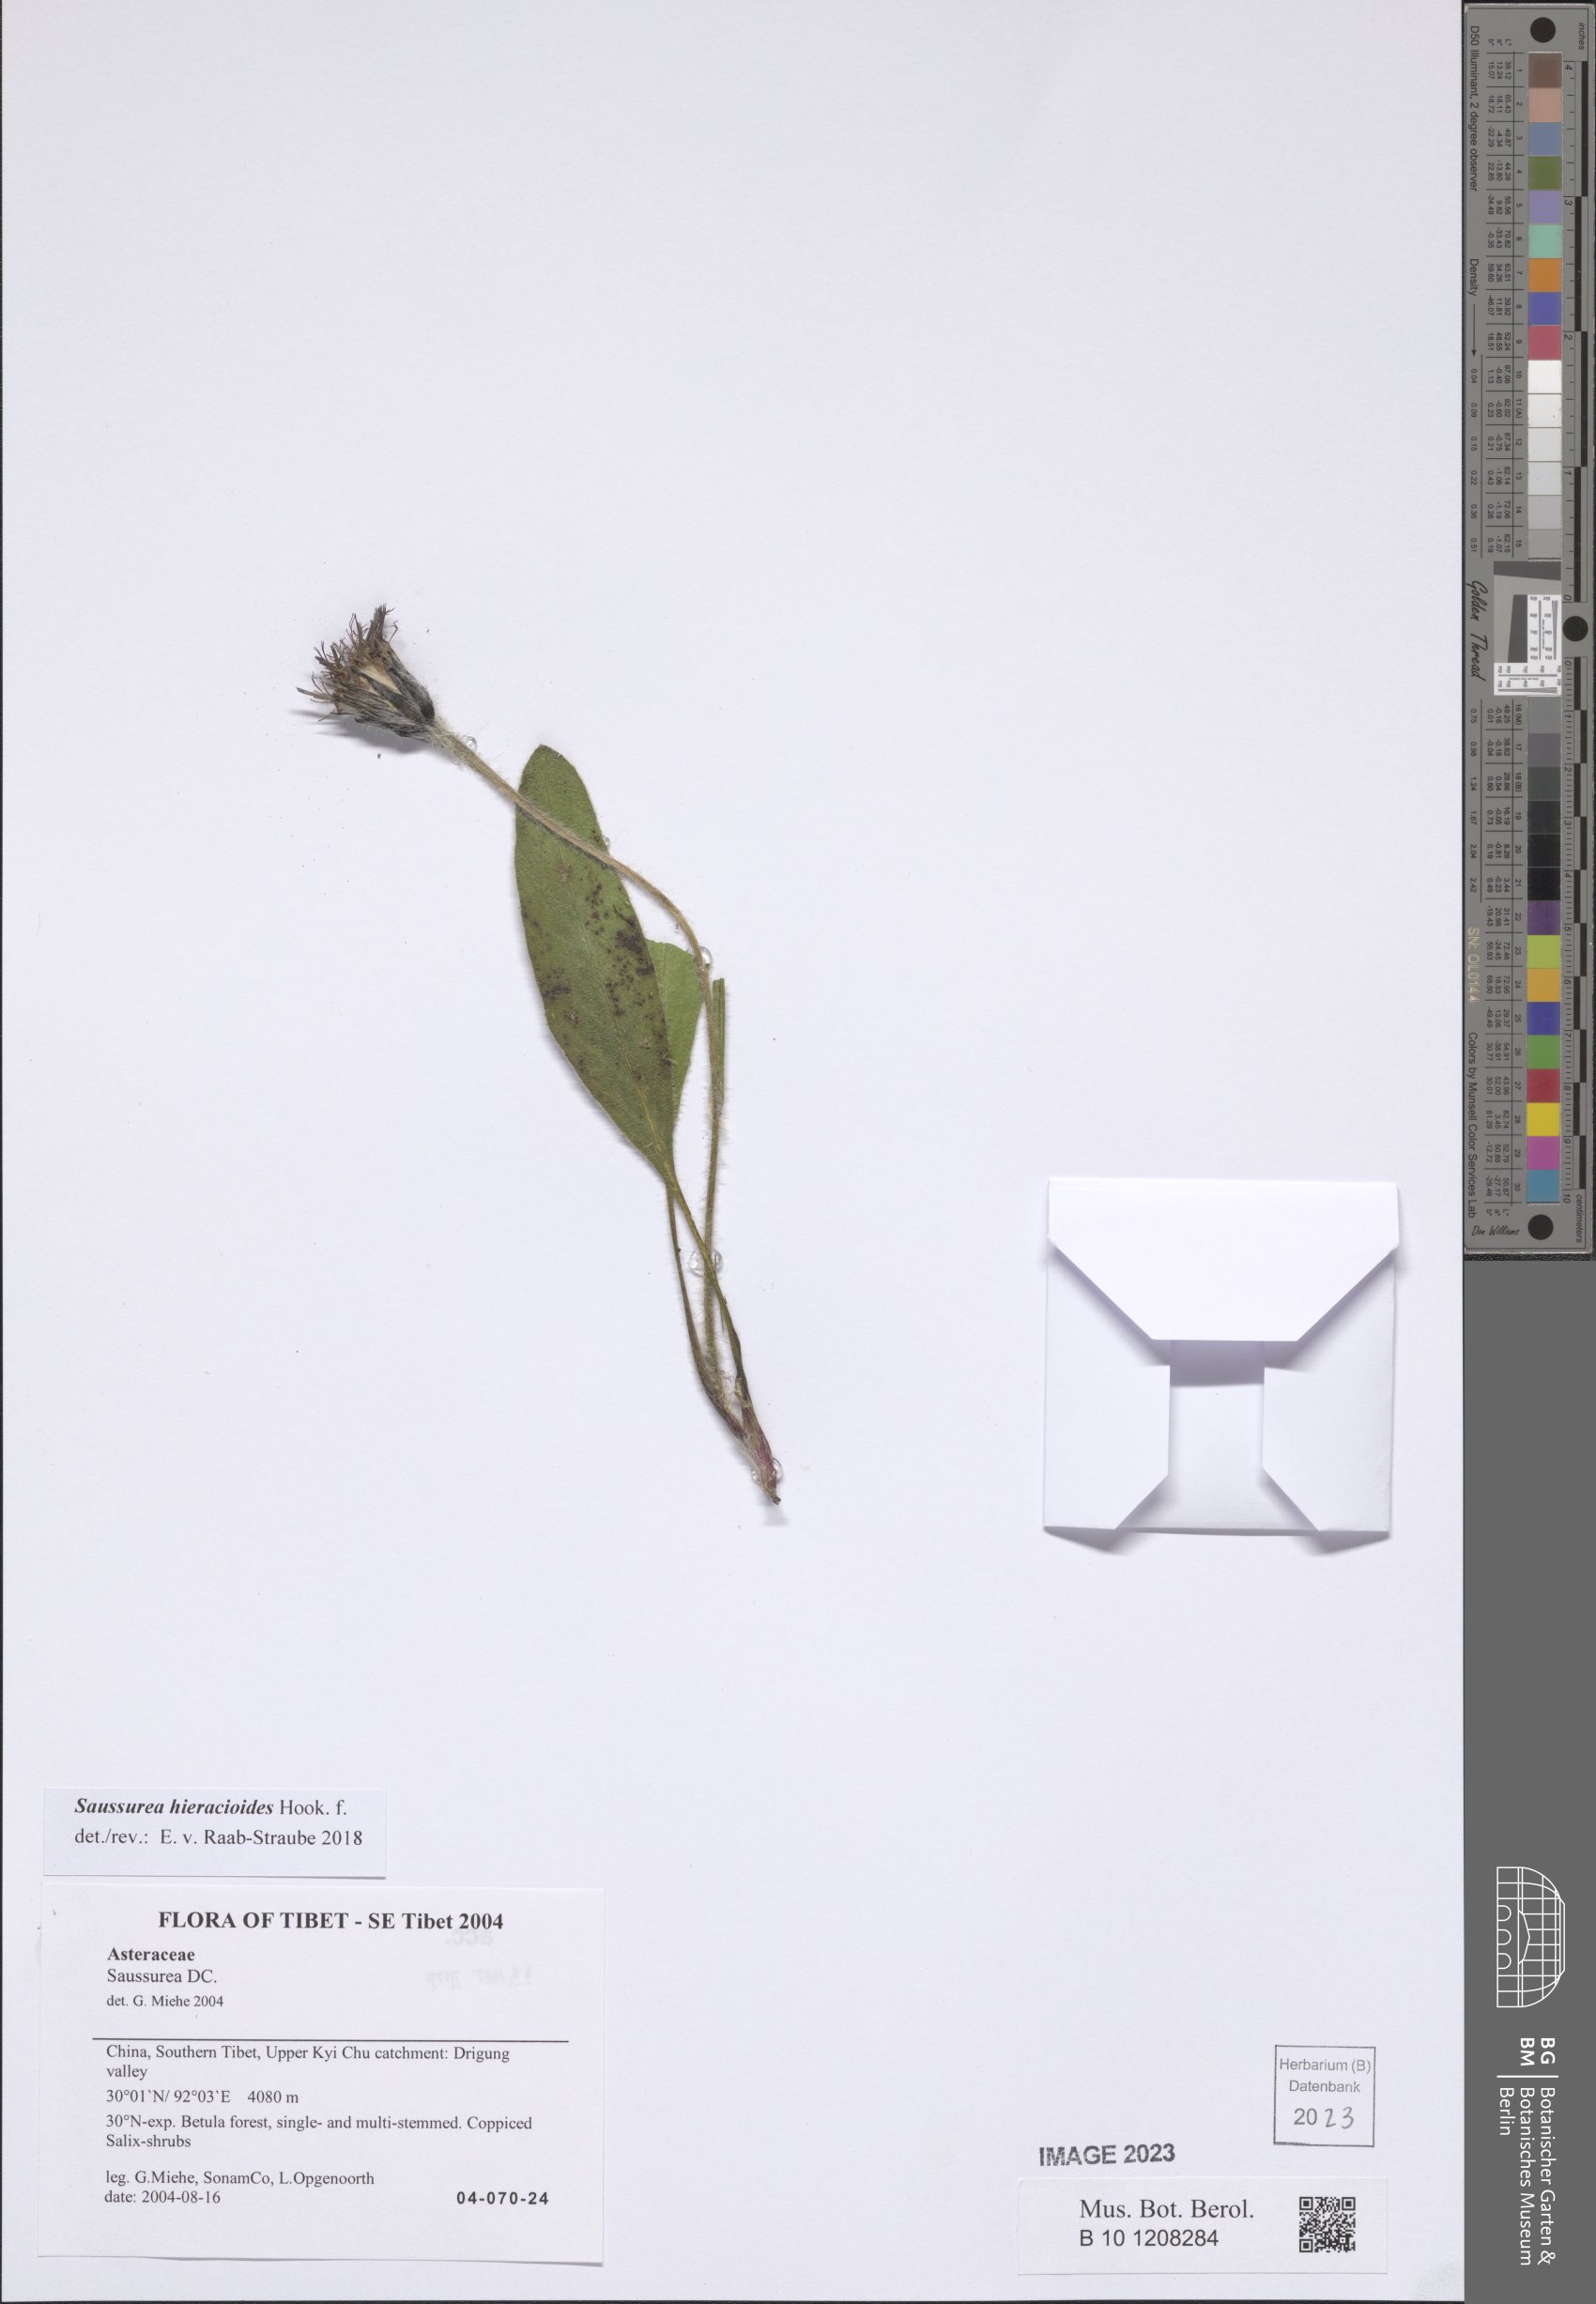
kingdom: Plantae
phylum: Tracheophyta
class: Magnoliopsida
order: Asterales
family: Asteraceae
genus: Saussurea
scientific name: Saussurea hieracioides
